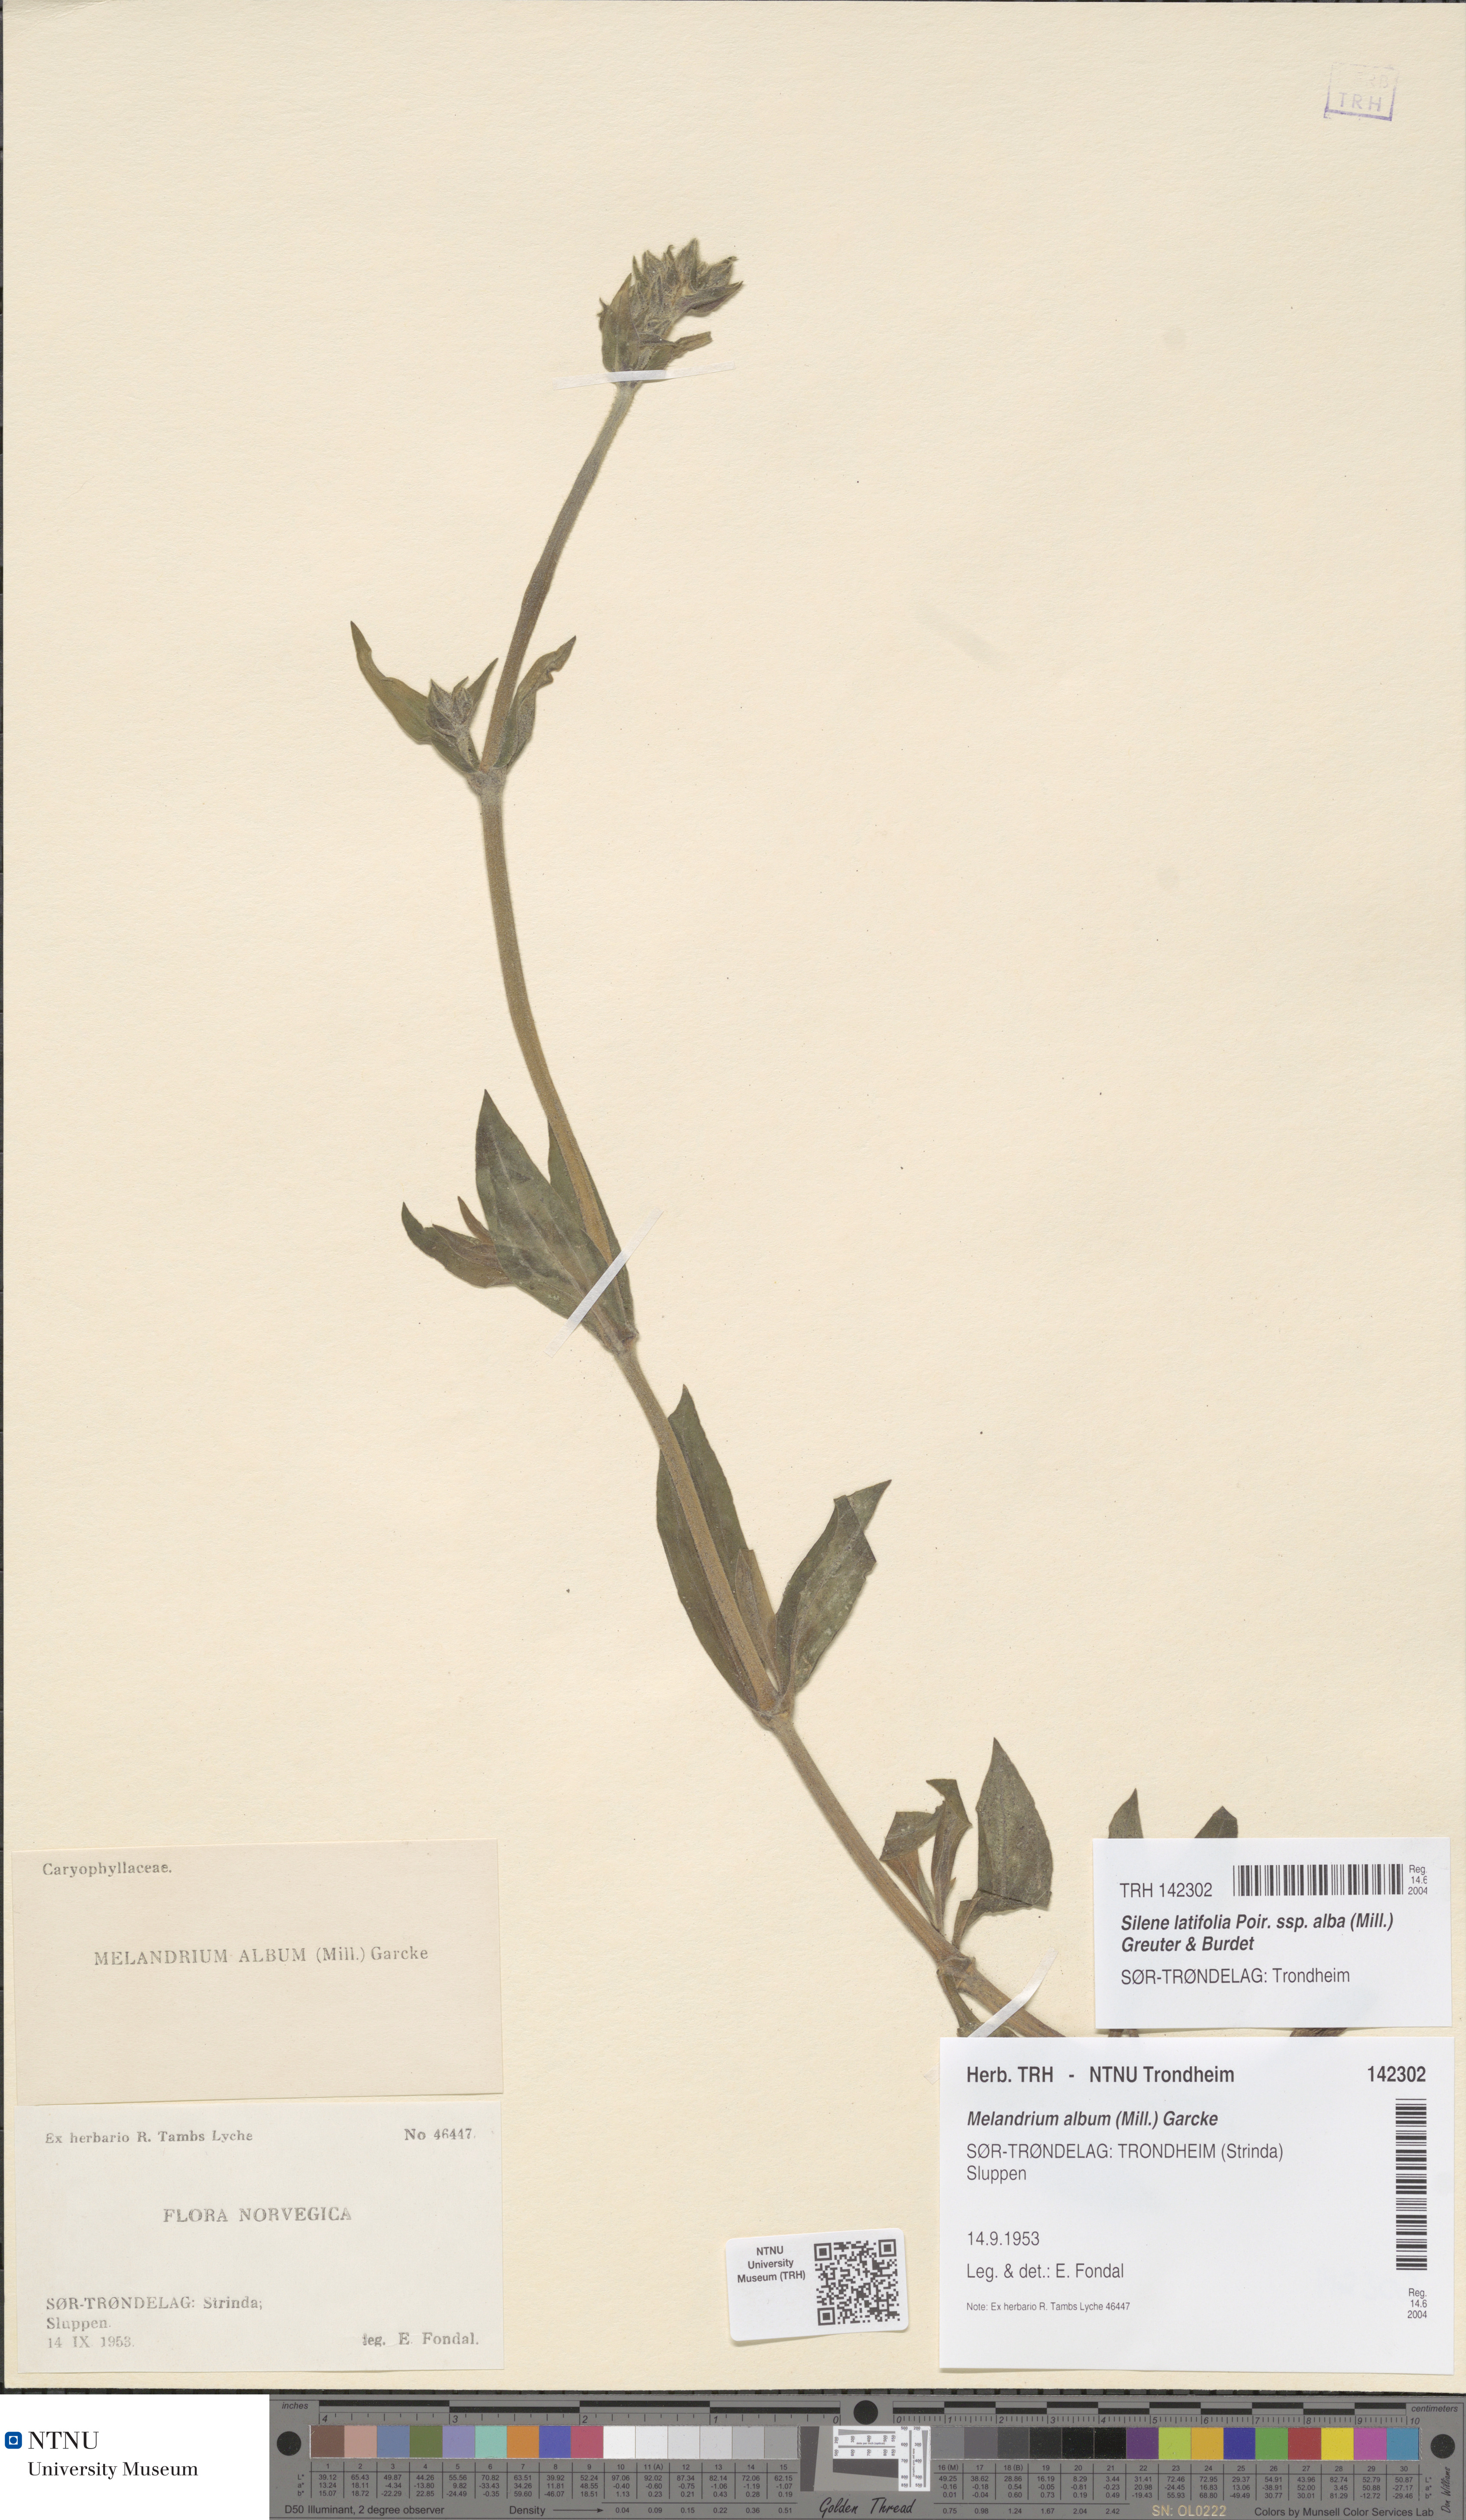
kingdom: Plantae
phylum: Tracheophyta
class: Magnoliopsida
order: Caryophyllales
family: Caryophyllaceae
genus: Silene
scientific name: Silene latifolia
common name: White campion
